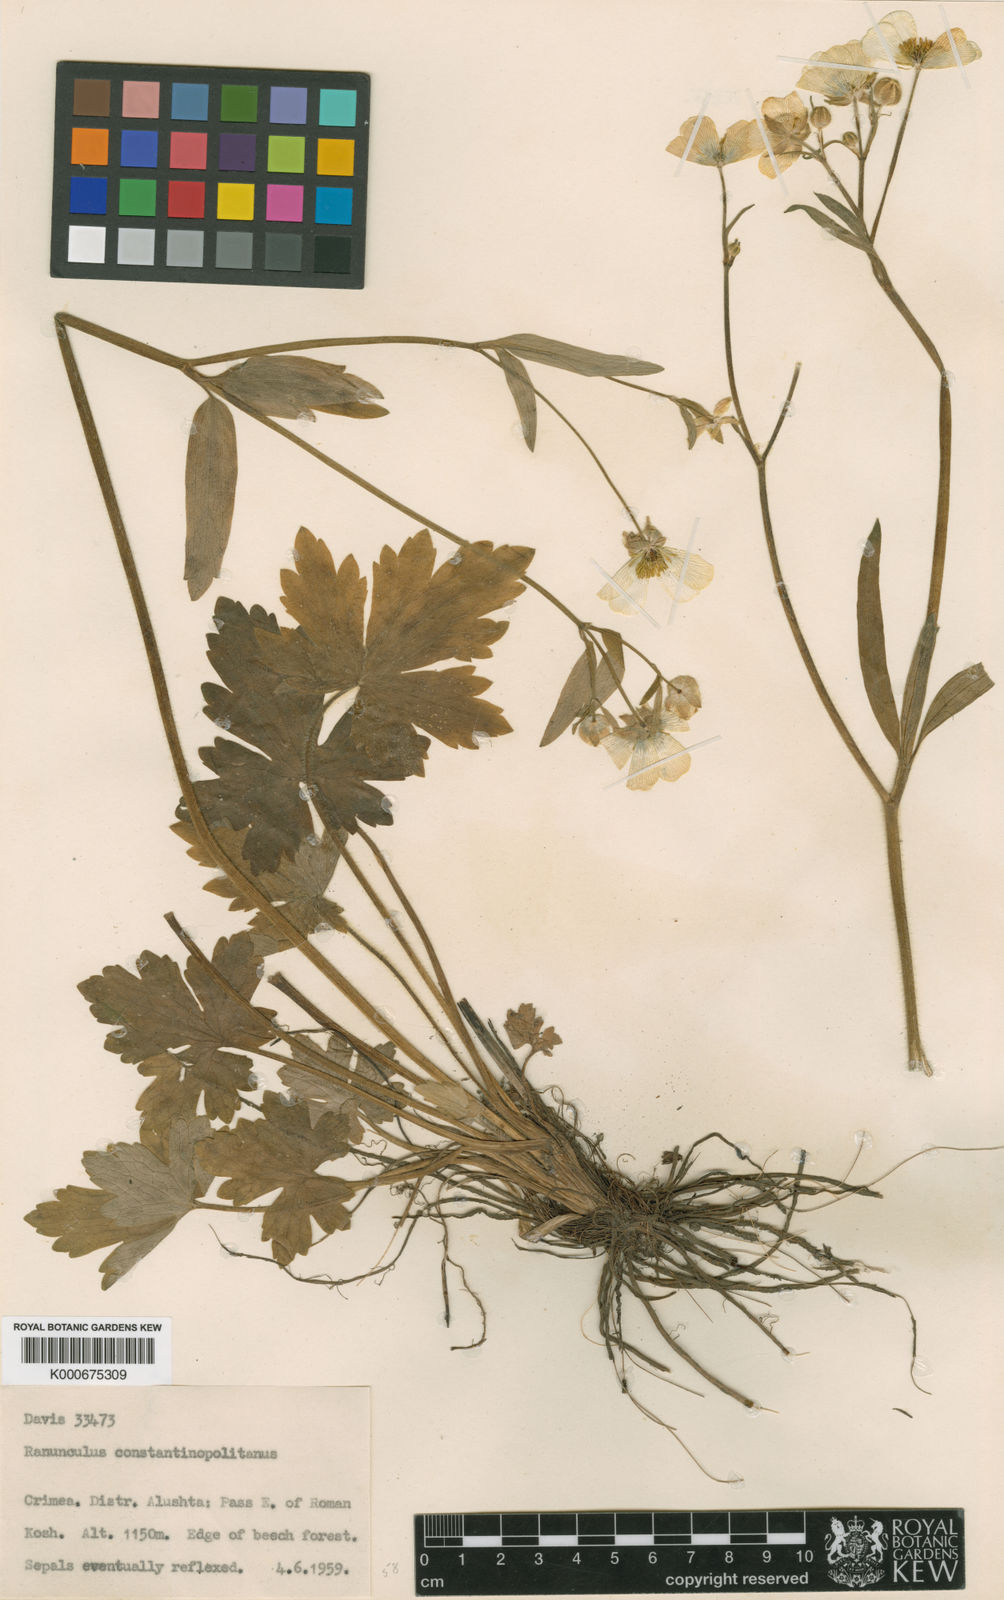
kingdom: Plantae
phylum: Tracheophyta
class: Magnoliopsida
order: Ranunculales
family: Ranunculaceae
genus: Ranunculus
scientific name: Ranunculus constantinopolitanus
